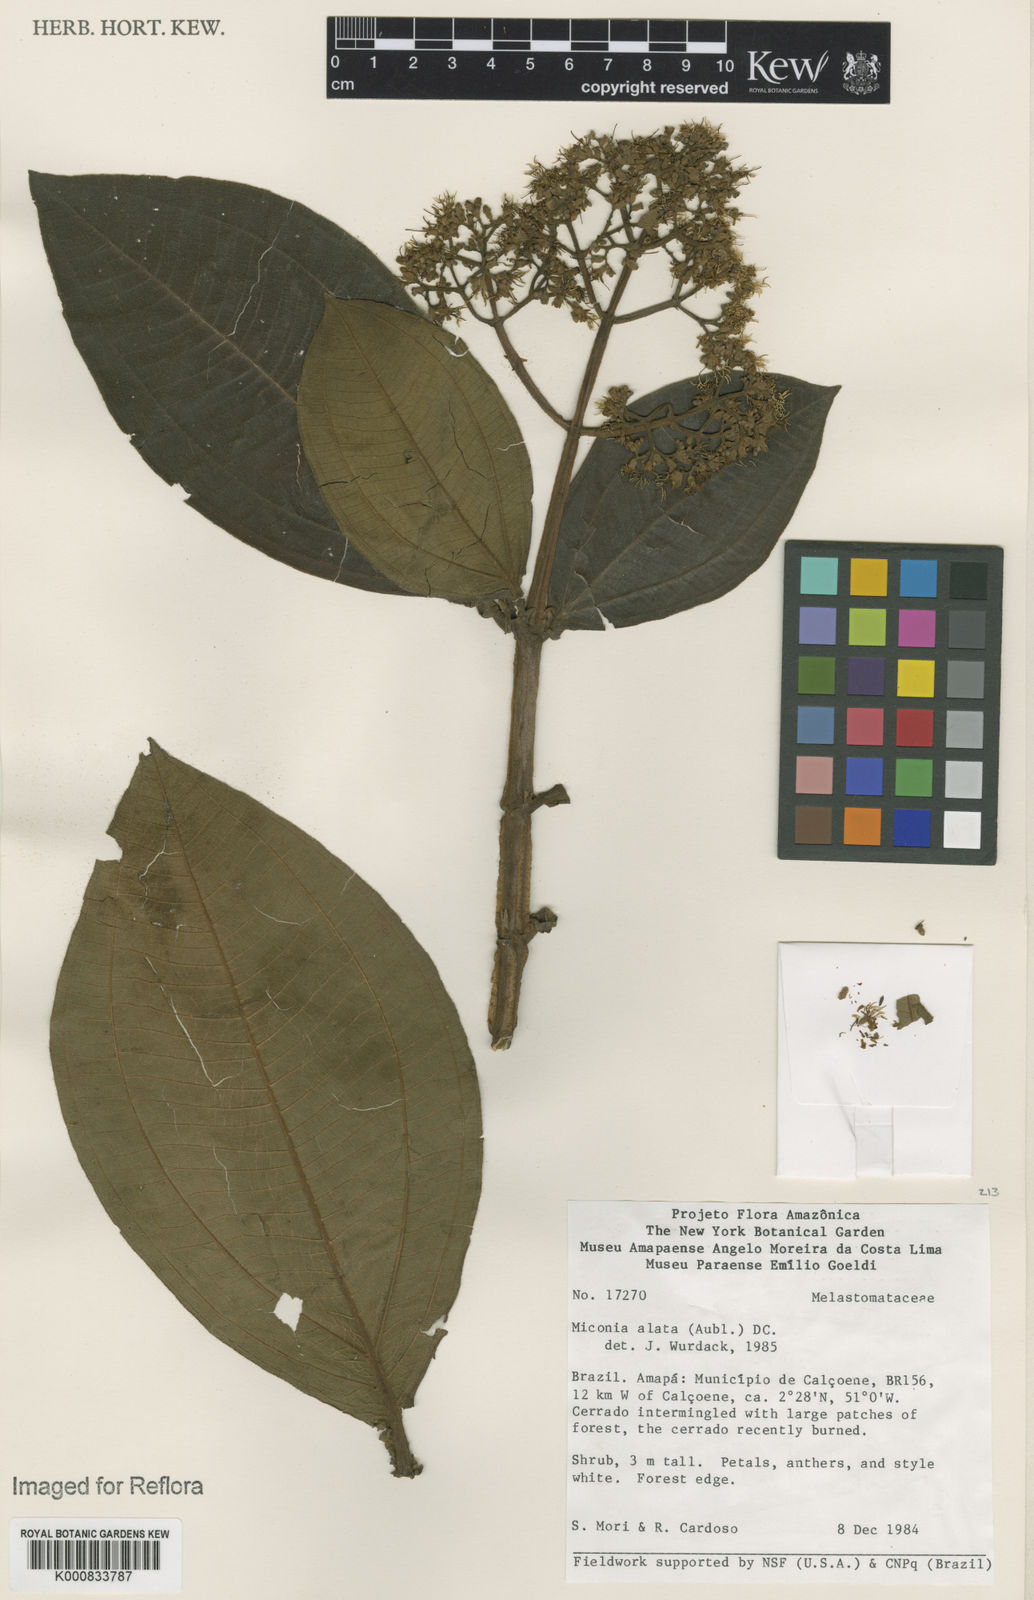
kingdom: Plantae
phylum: Tracheophyta
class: Magnoliopsida
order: Myrtales
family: Melastomataceae
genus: Miconia
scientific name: Miconia alata
